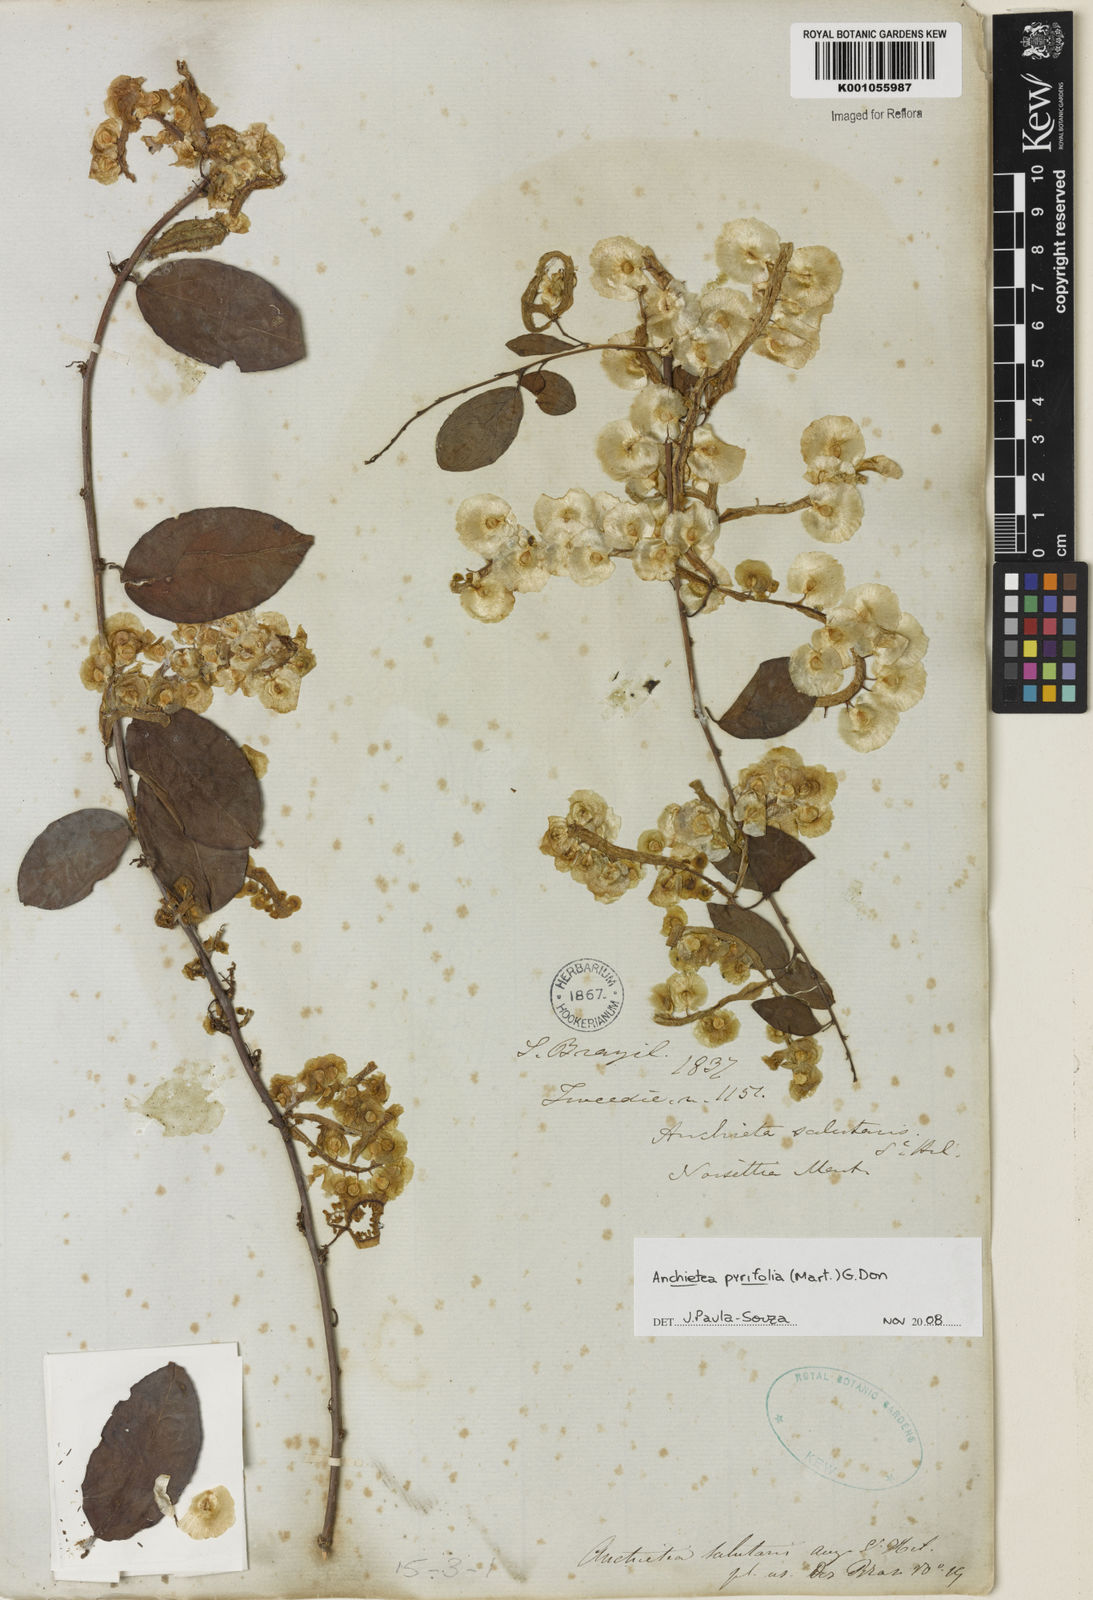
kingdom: Plantae
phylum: Tracheophyta
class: Magnoliopsida
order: Malpighiales
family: Violaceae
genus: Anchietea
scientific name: Anchietea pyrifolia
